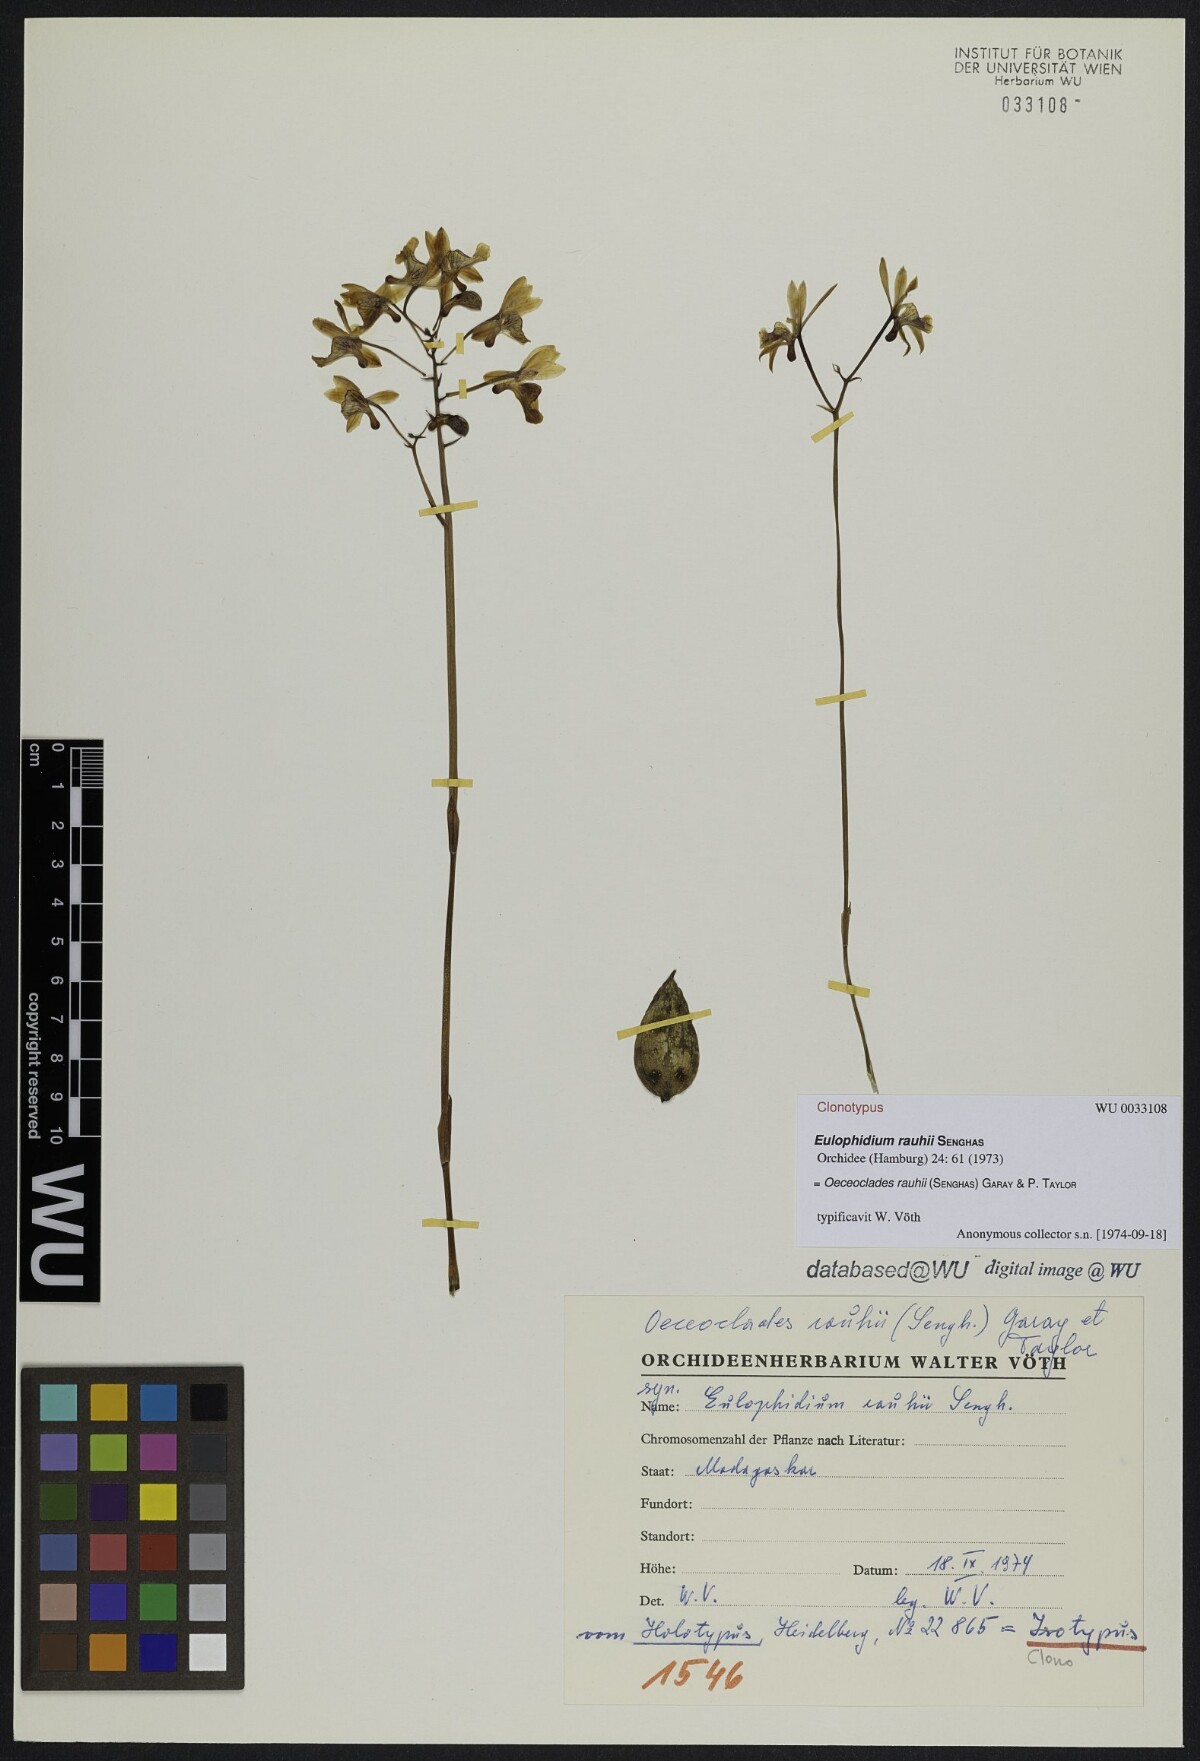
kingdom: Plantae
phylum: Tracheophyta
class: Liliopsida
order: Asparagales
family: Orchidaceae
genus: Eulophia
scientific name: Eulophia rauhii
